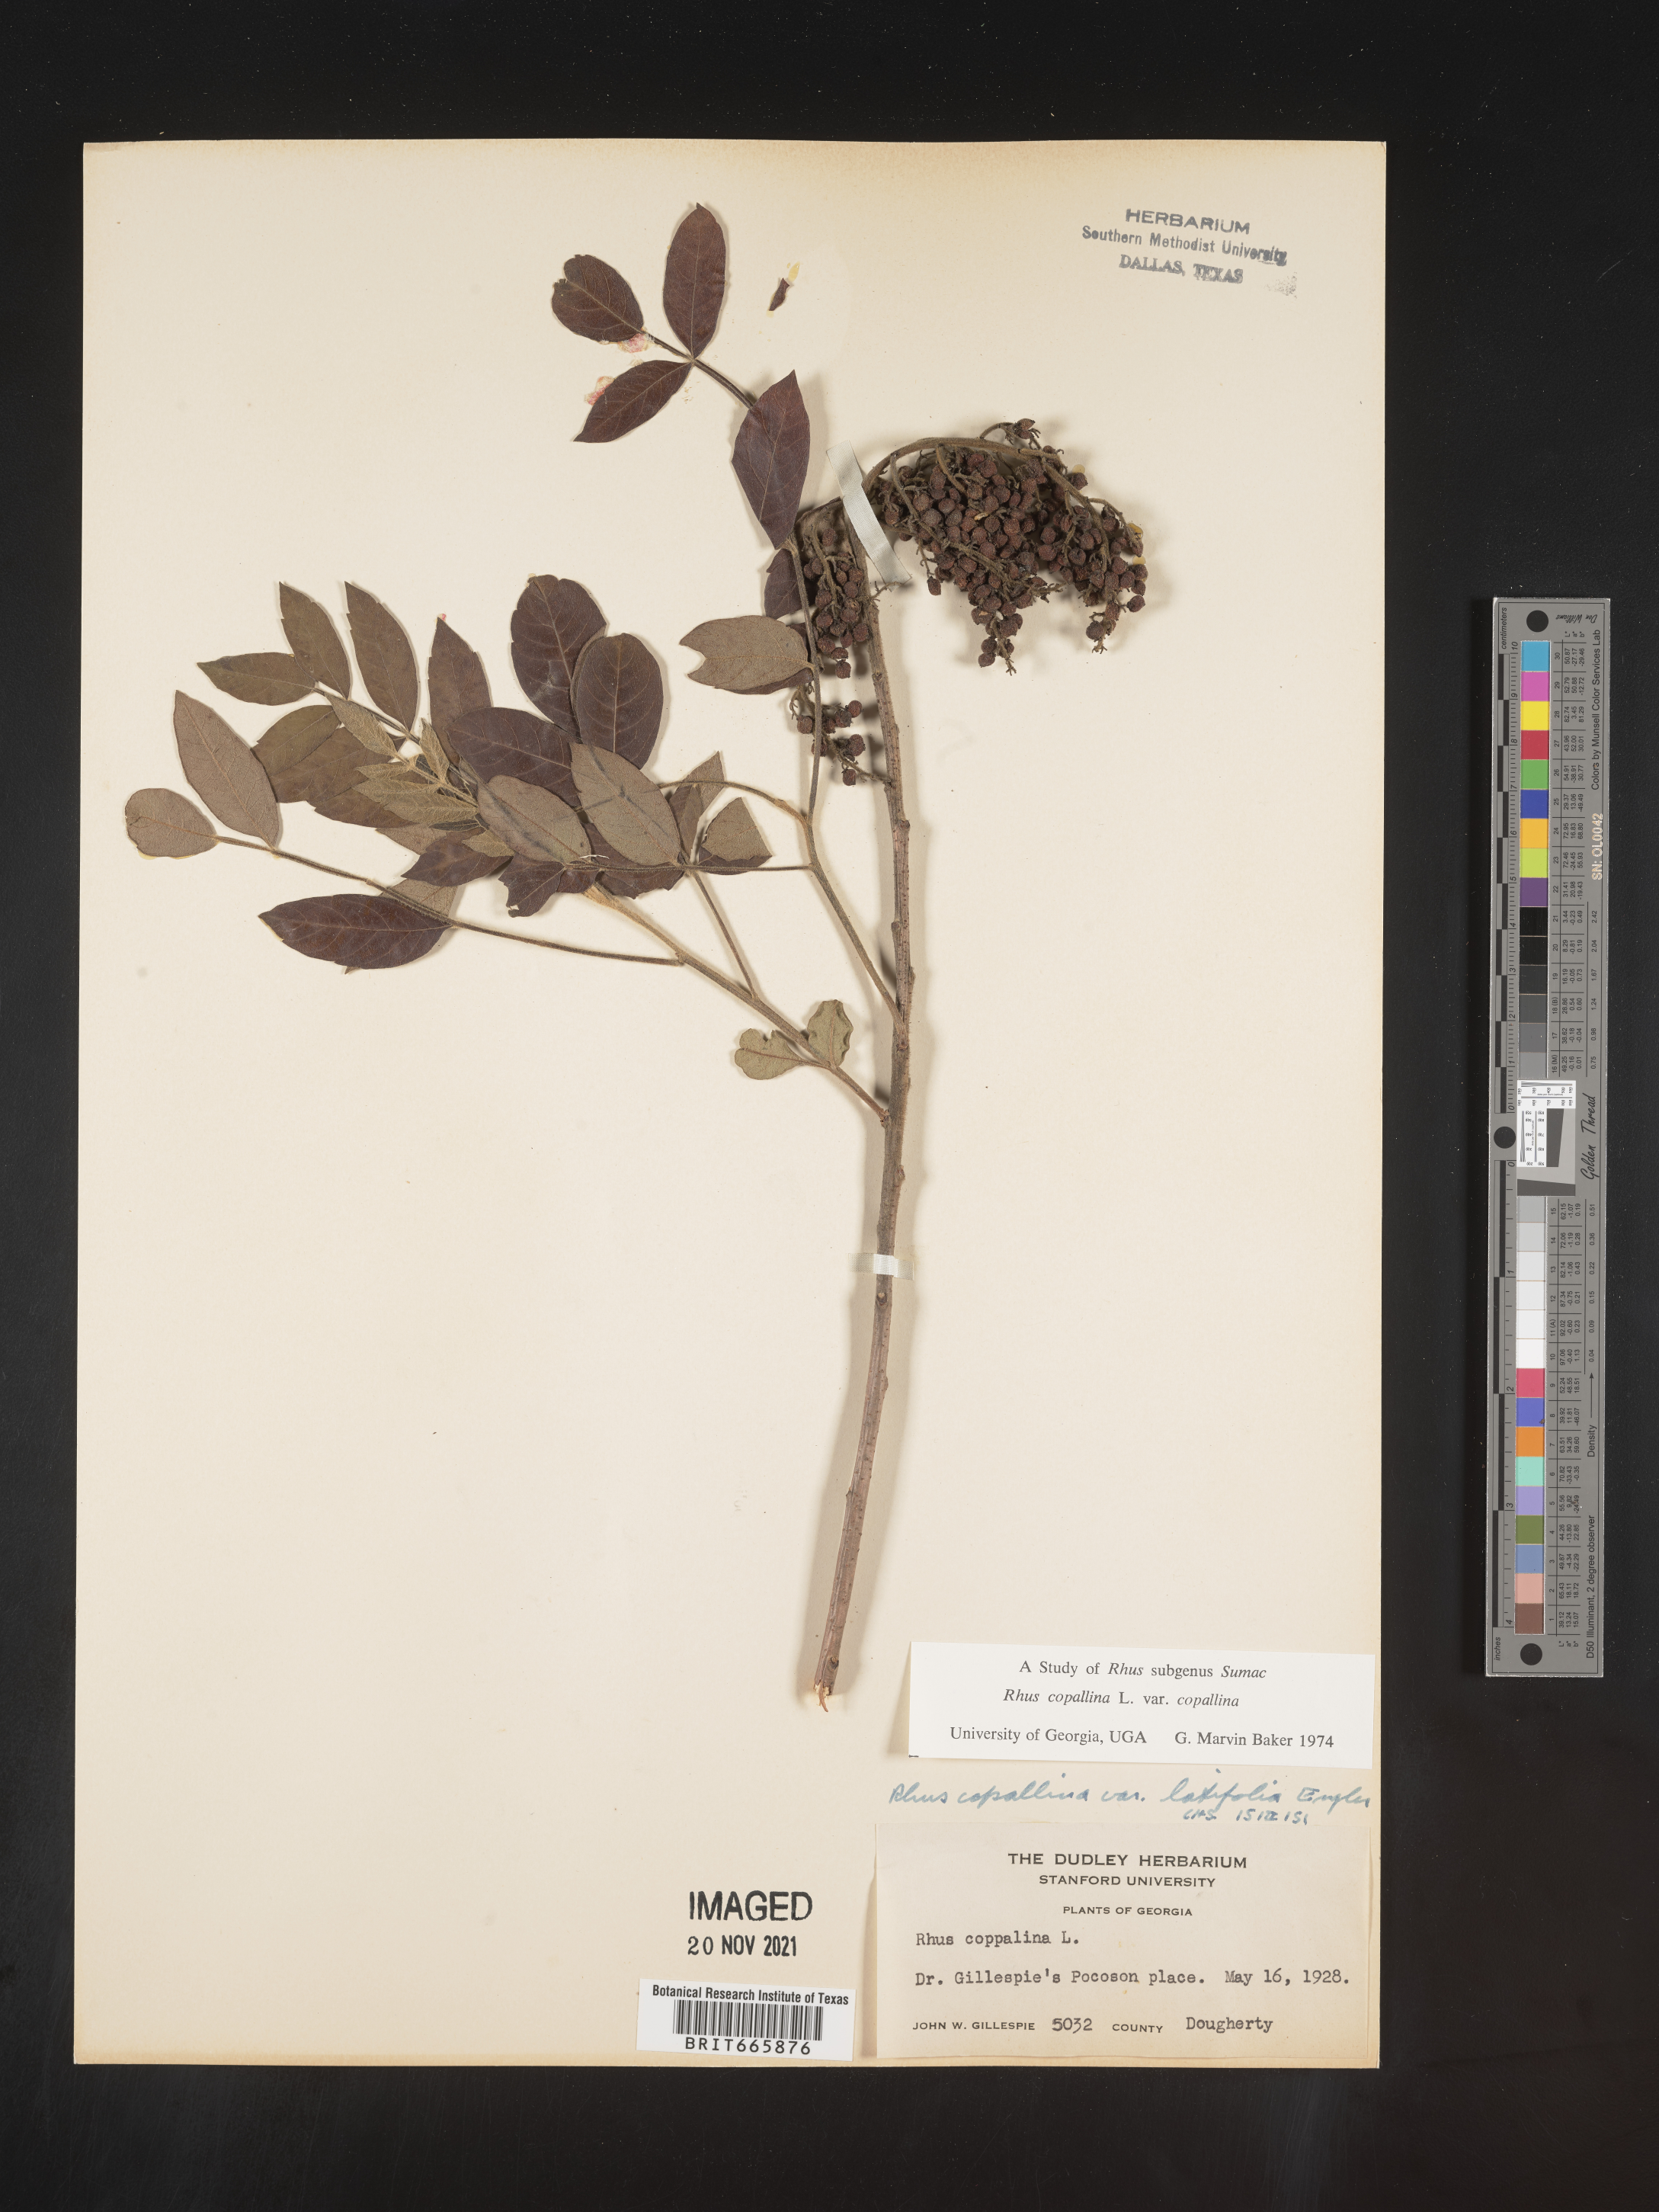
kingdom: Plantae
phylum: Tracheophyta
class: Magnoliopsida
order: Sapindales
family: Anacardiaceae
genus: Rhus
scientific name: Rhus copallina
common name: Shining sumac
